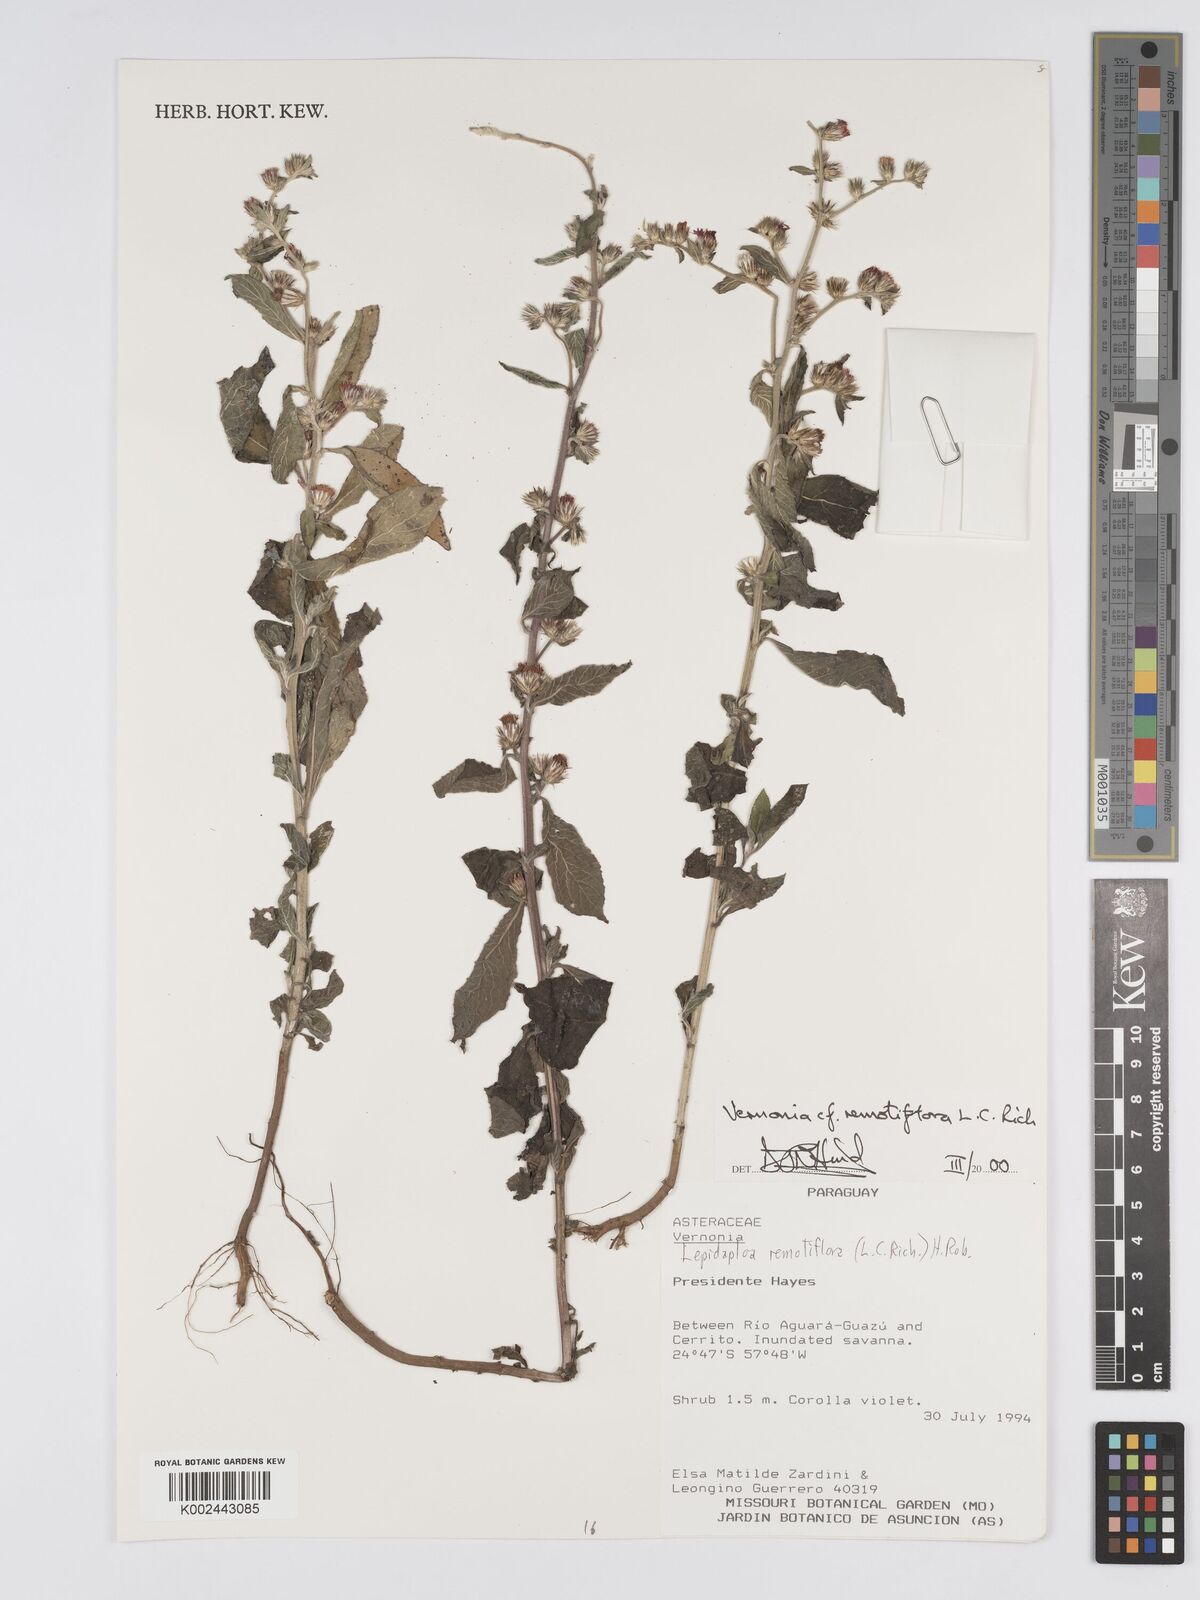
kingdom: Plantae
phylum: Tracheophyta
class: Magnoliopsida
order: Asterales
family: Asteraceae
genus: Lepidaploa
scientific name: Lepidaploa remotiflora
